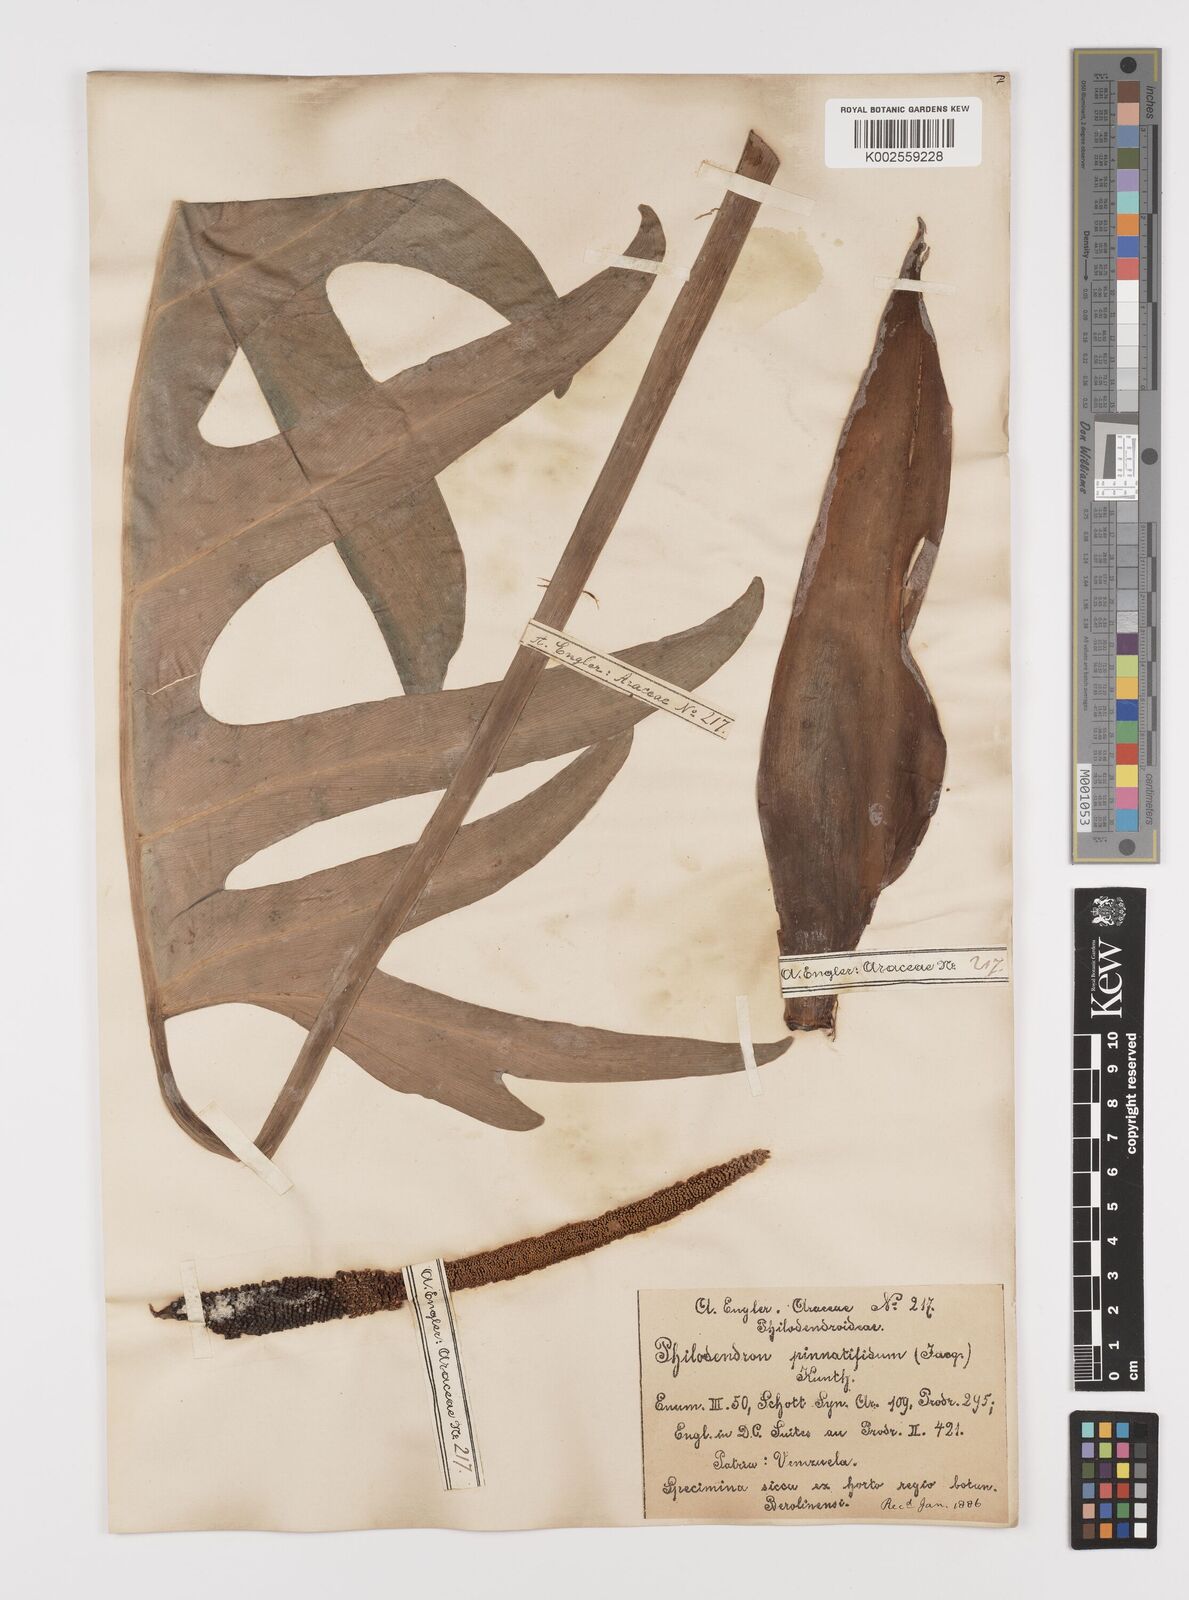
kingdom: Plantae
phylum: Tracheophyta
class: Liliopsida
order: Alismatales
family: Araceae
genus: Philodendron
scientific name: Philodendron pinnatifidum
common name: Comb-leaf philodendron
